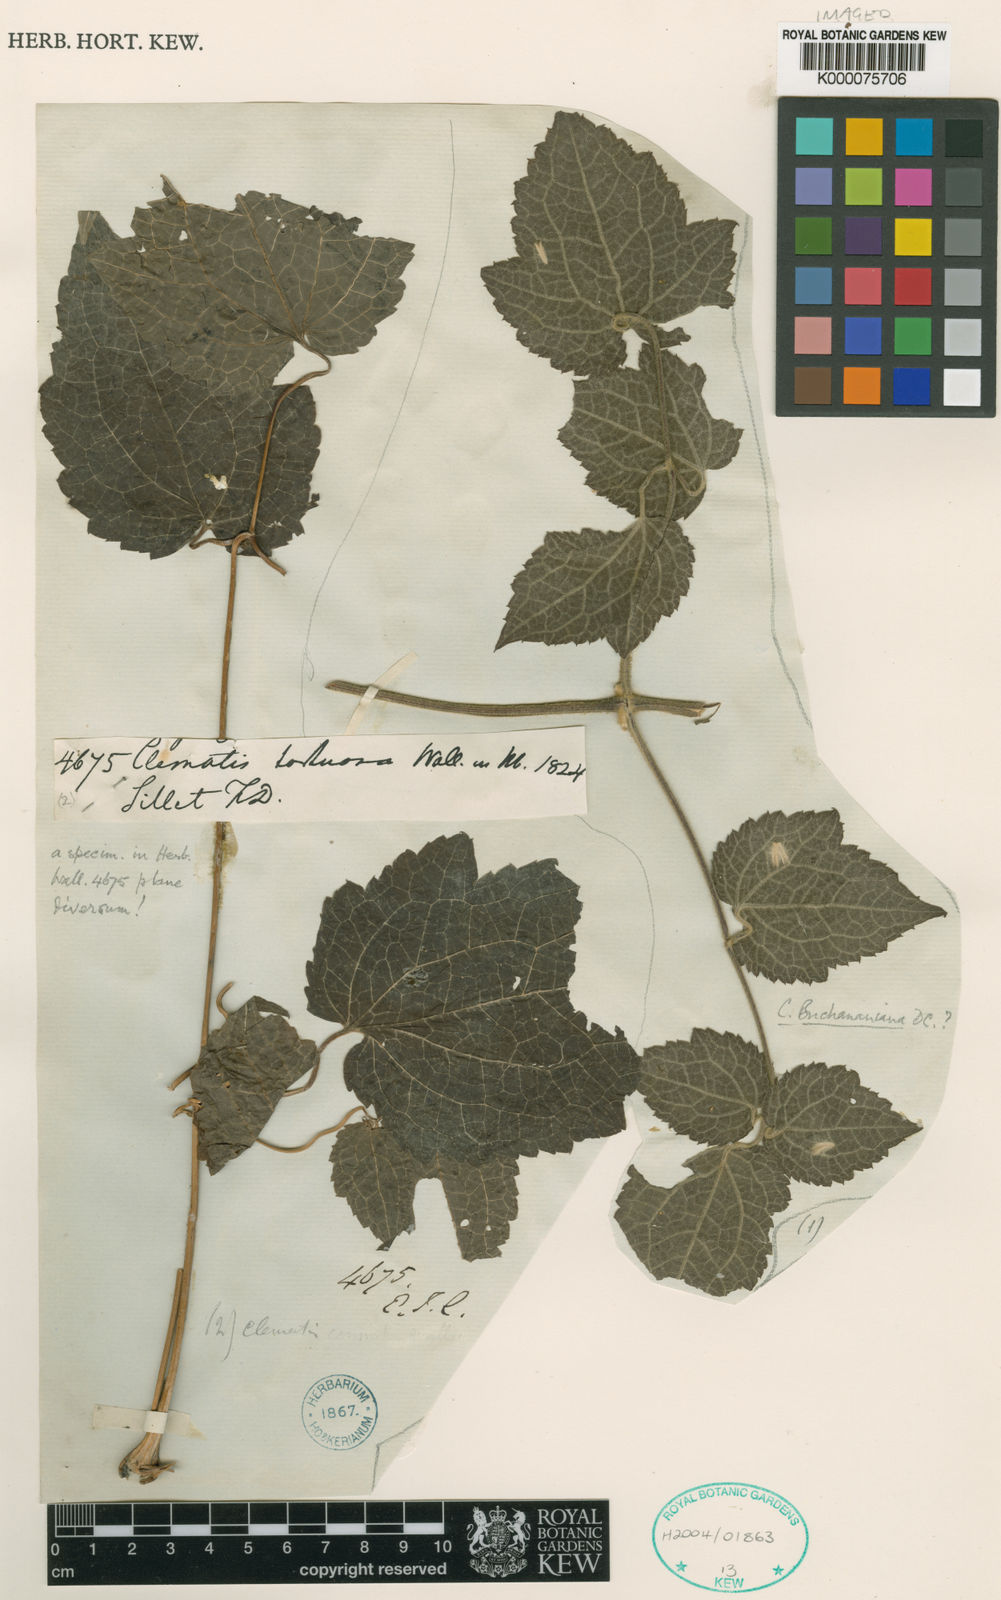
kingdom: Plantae
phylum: Tracheophyta
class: Magnoliopsida
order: Ranunculales
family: Ranunculaceae
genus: Clematis
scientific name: Clematis
